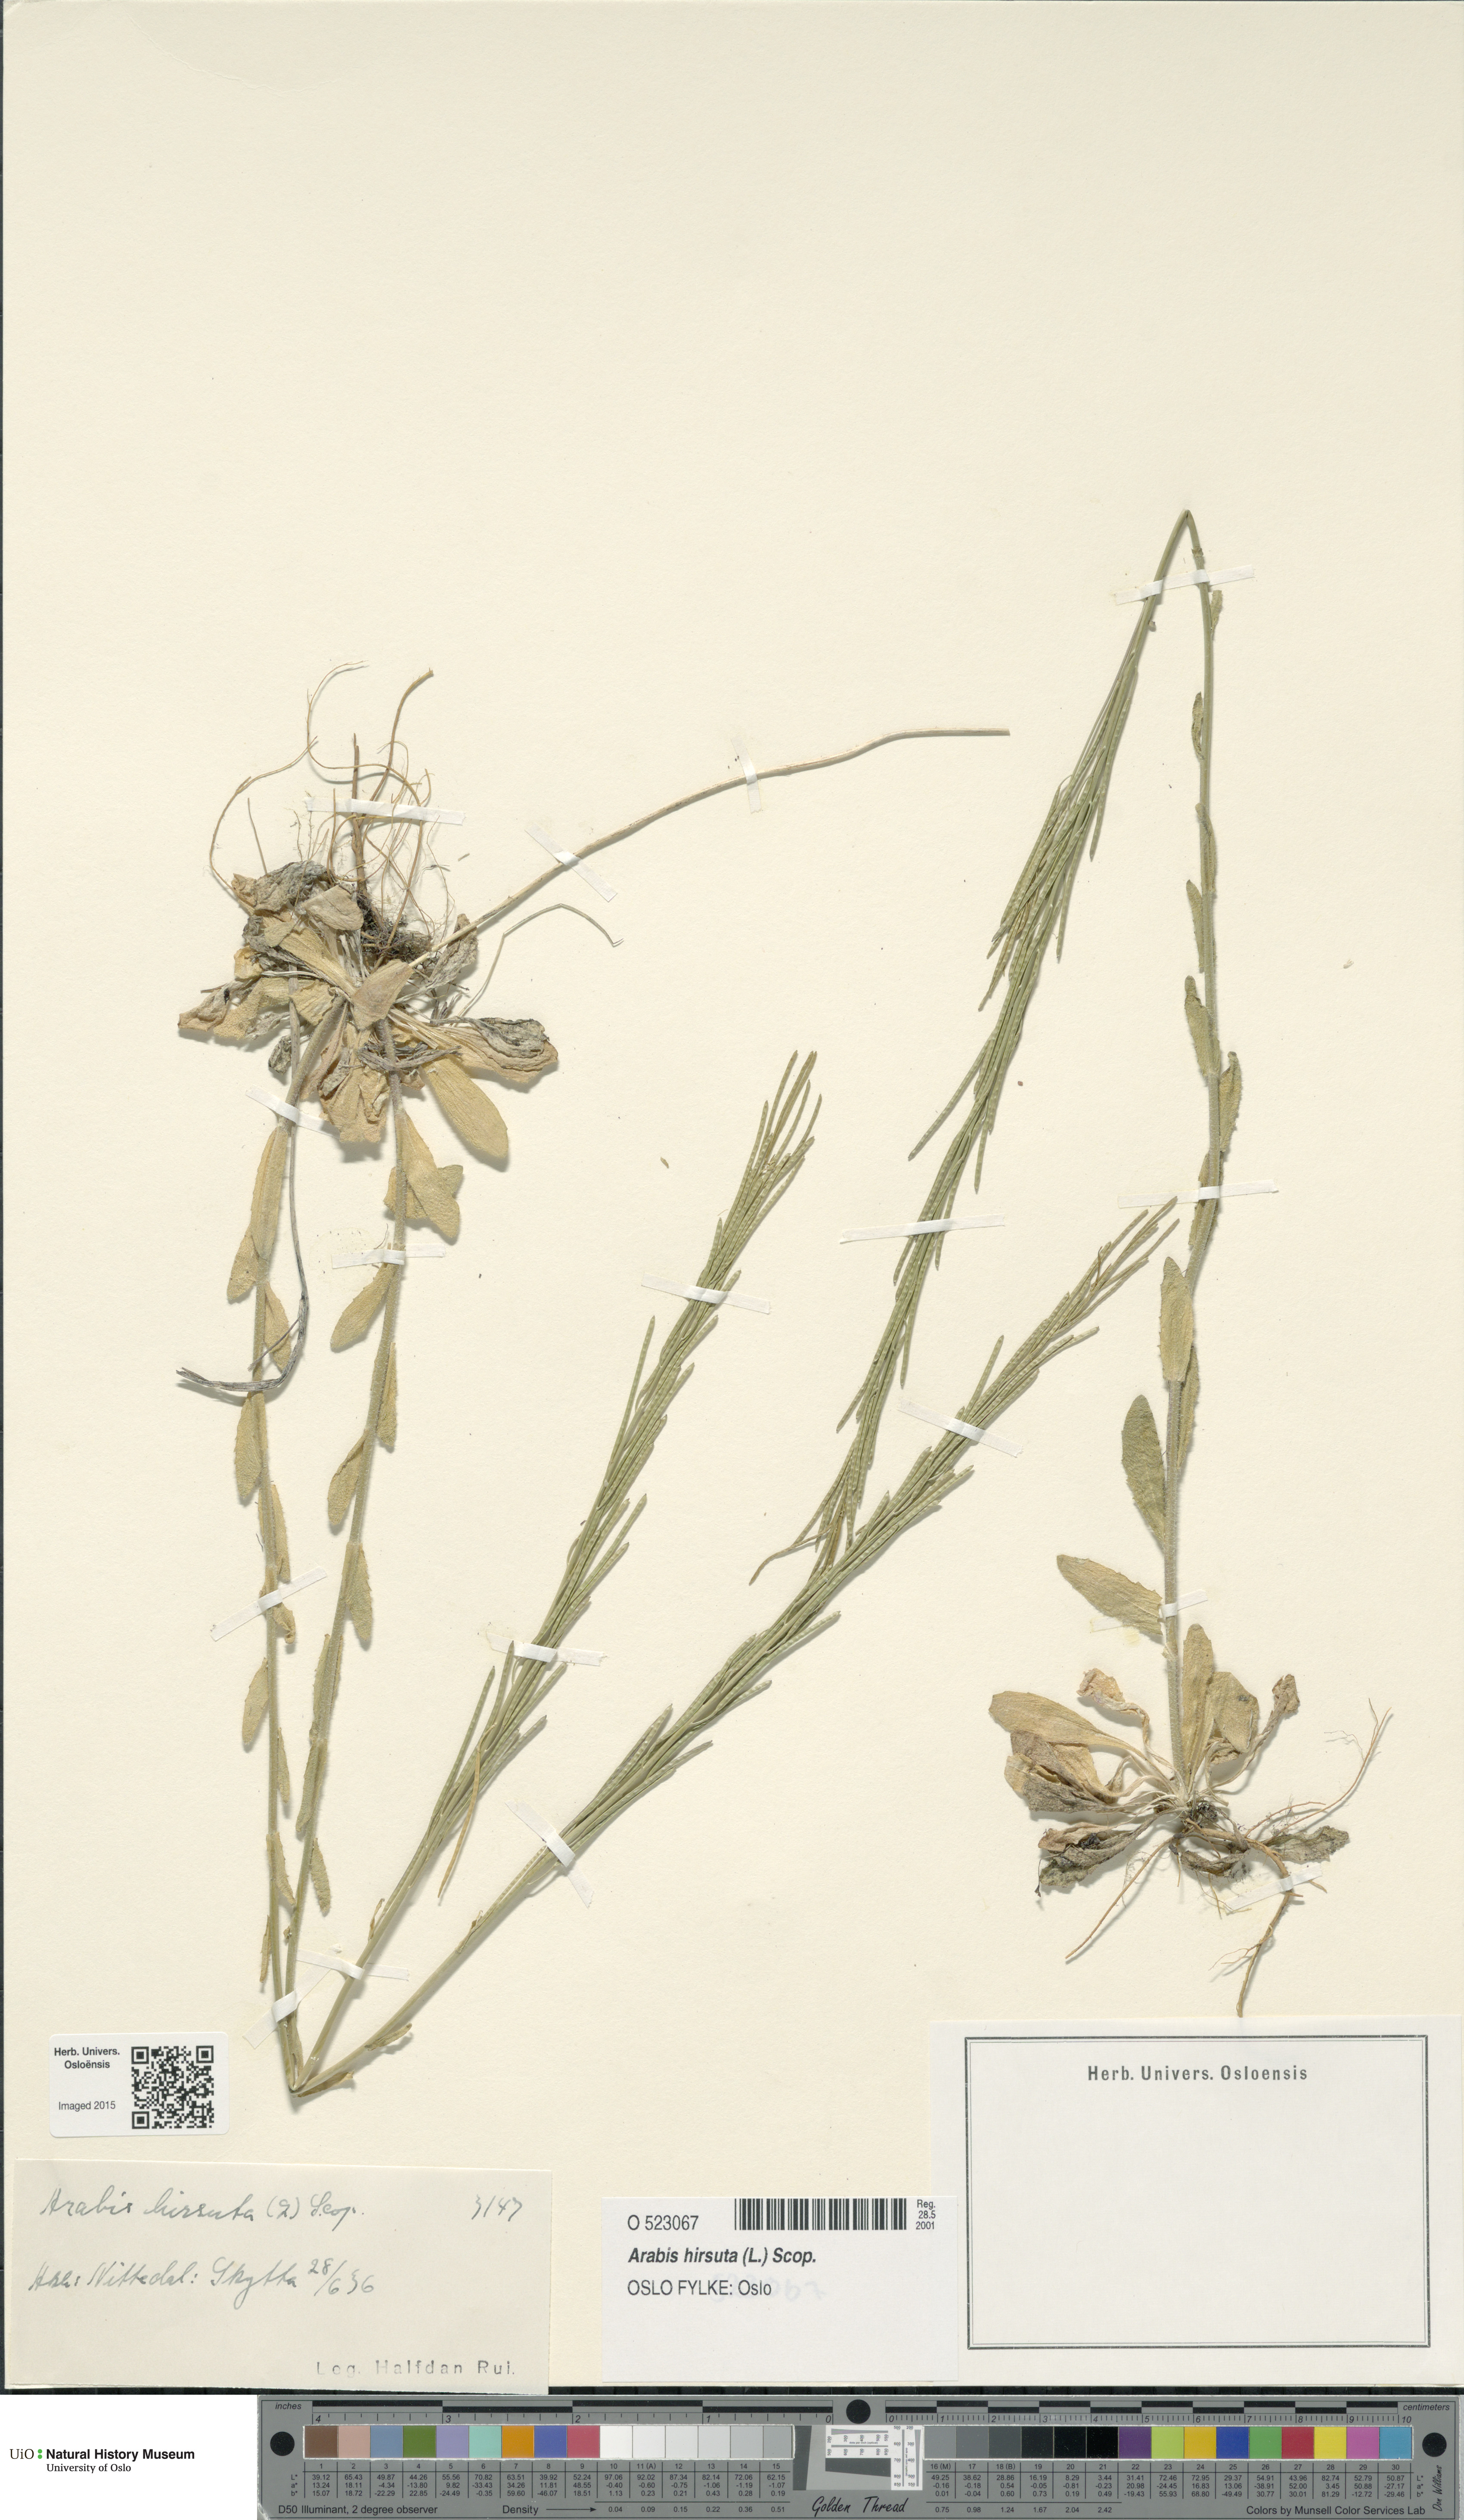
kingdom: Plantae
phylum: Tracheophyta
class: Magnoliopsida
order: Brassicales
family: Brassicaceae
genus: Arabis
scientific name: Arabis hirsuta
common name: Hairy rock-cress
